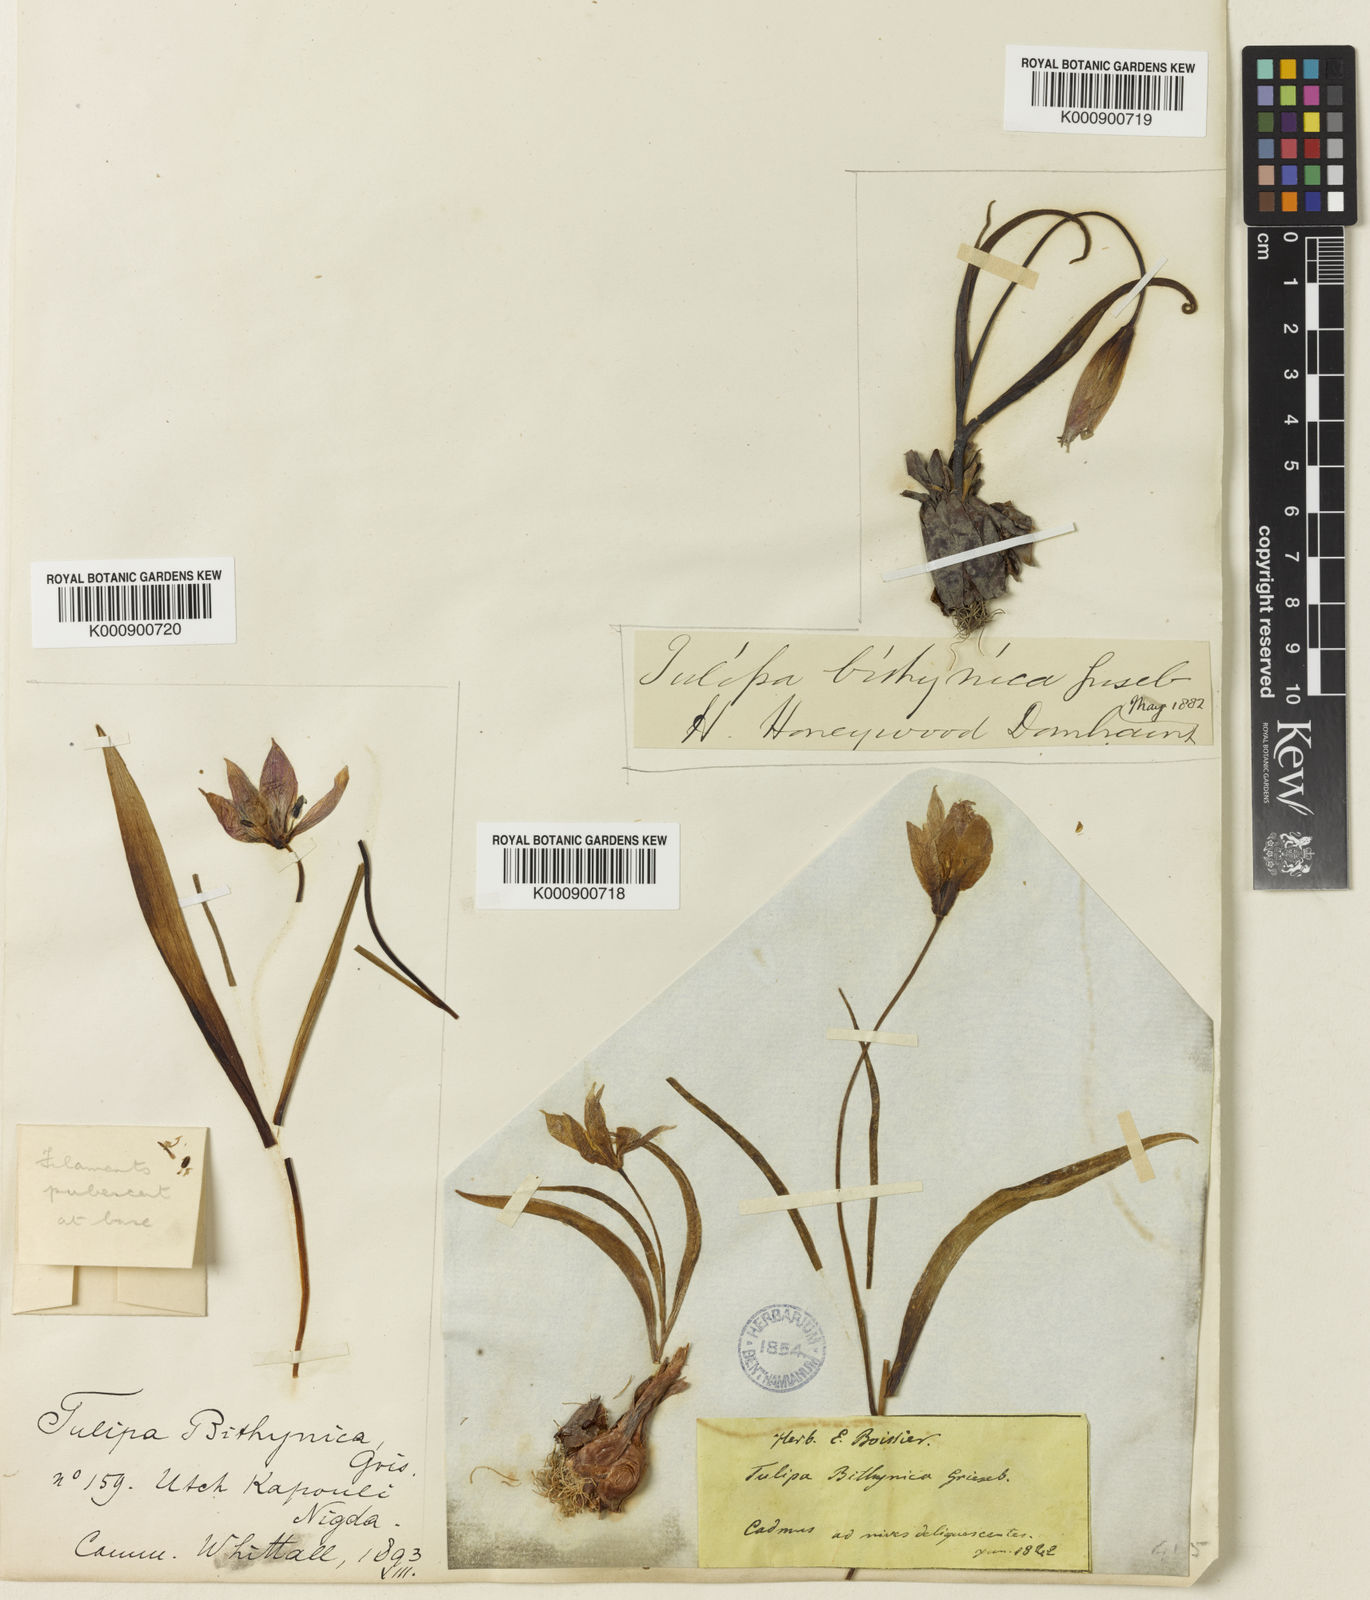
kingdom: Plantae
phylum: Tracheophyta
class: Liliopsida
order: Liliales
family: Liliaceae
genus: Tulipa
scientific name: Tulipa orphanidea
